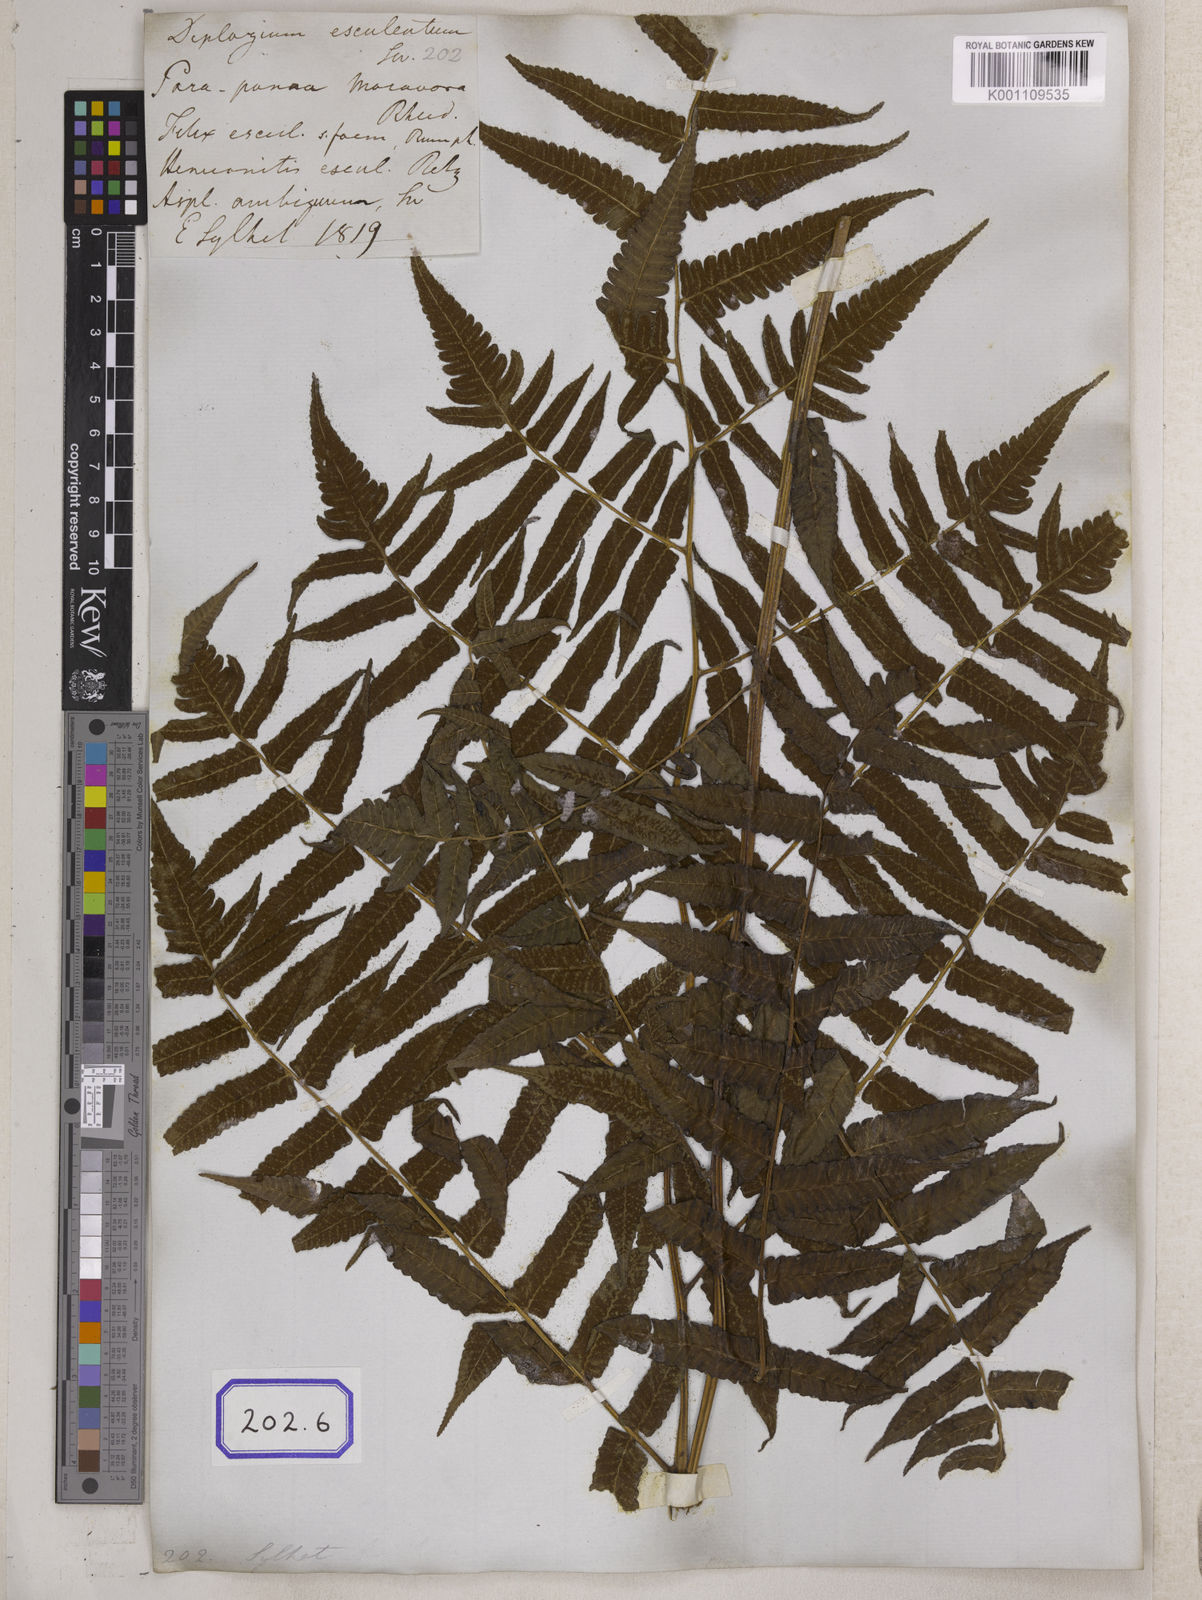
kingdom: Plantae
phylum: Tracheophyta
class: Polypodiopsida
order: Polypodiales
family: Aspleniaceae
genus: Asplenium
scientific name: Asplenium
